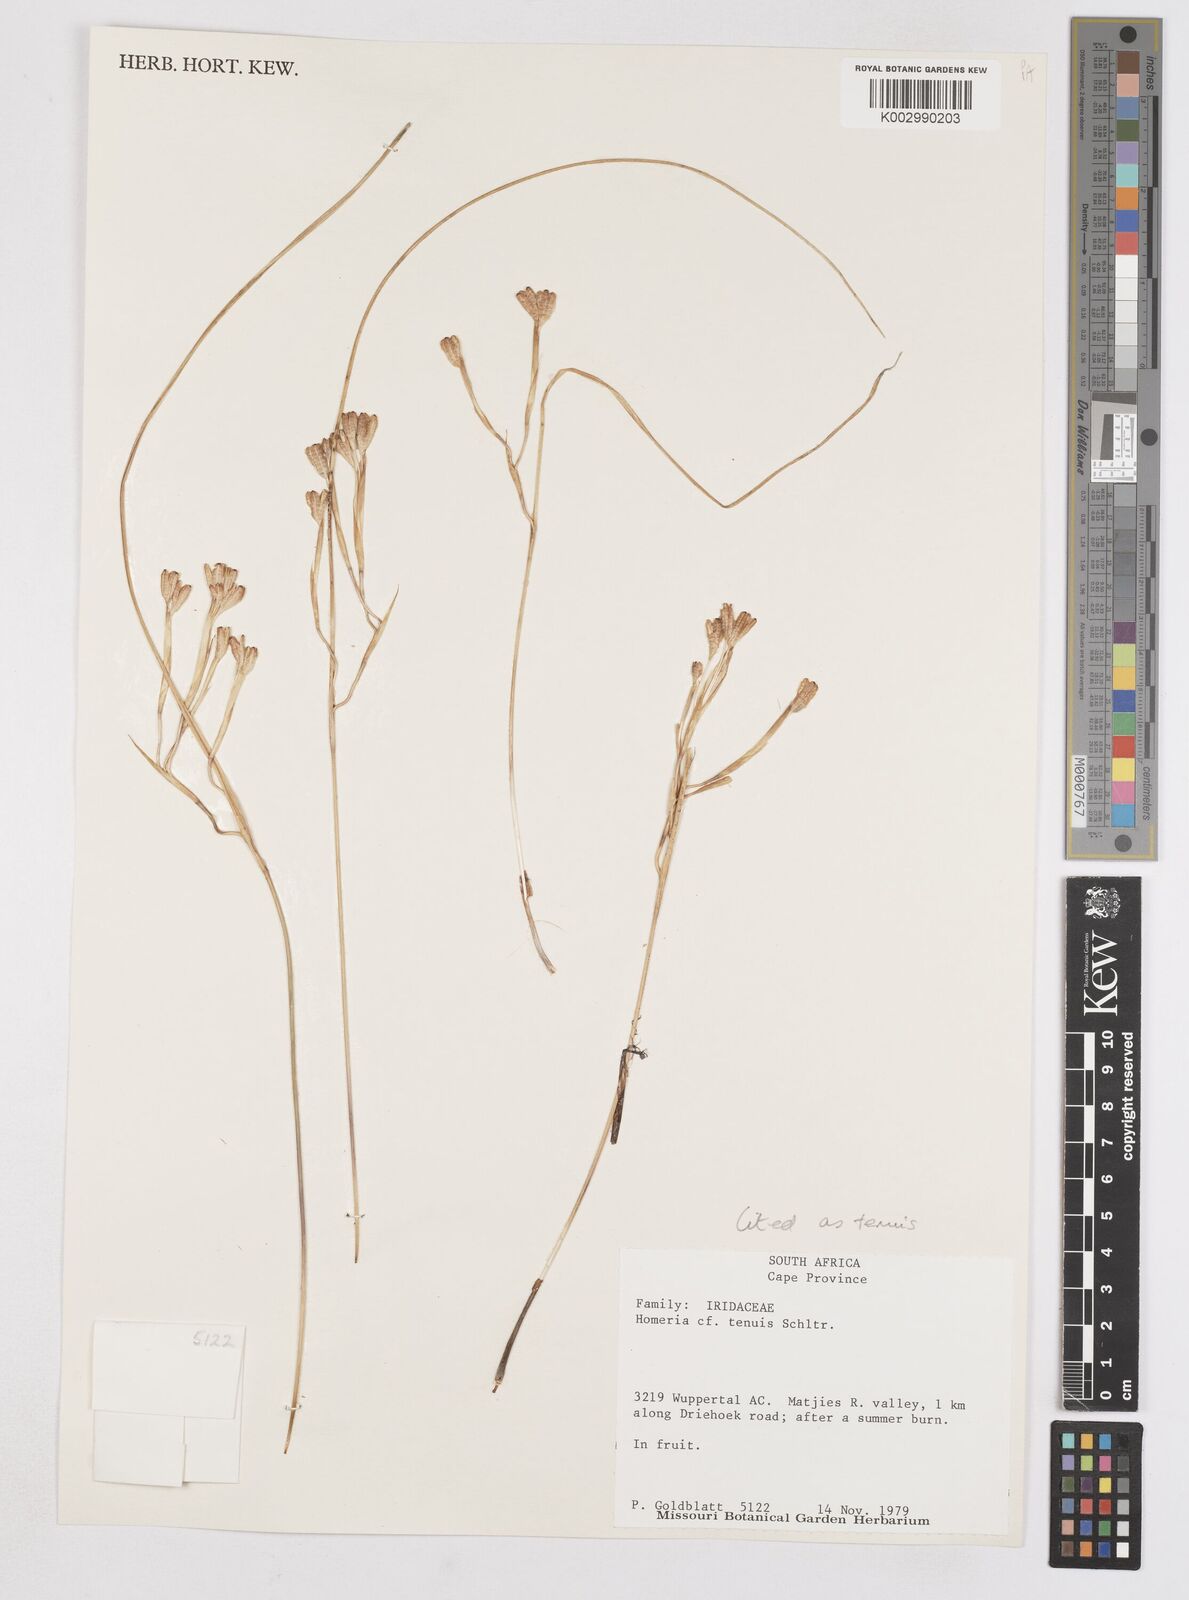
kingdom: Plantae
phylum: Tracheophyta
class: Liliopsida
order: Asparagales
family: Iridaceae
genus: Moraea
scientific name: Moraea unguiculata
